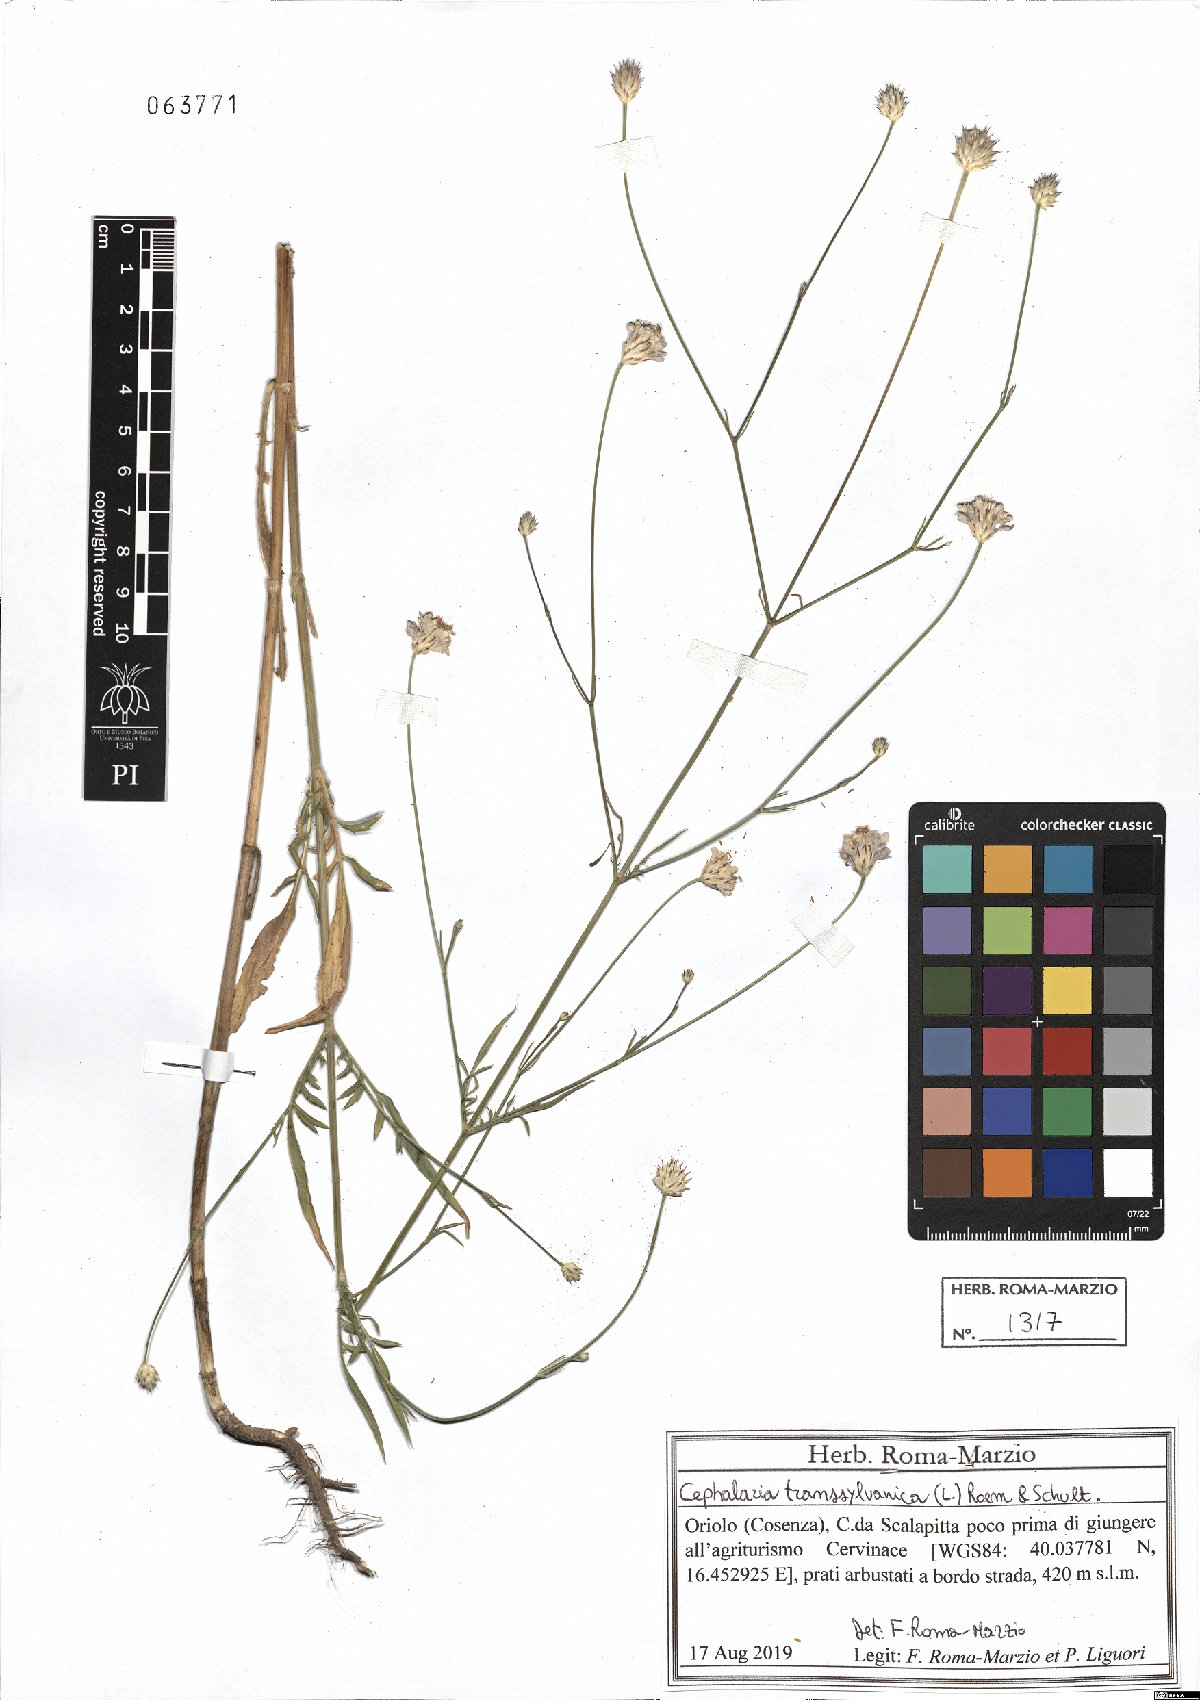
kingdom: Plantae
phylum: Tracheophyta
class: Magnoliopsida
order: Dipsacales
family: Caprifoliaceae
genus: Cephalaria
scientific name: Cephalaria transsylvanica
